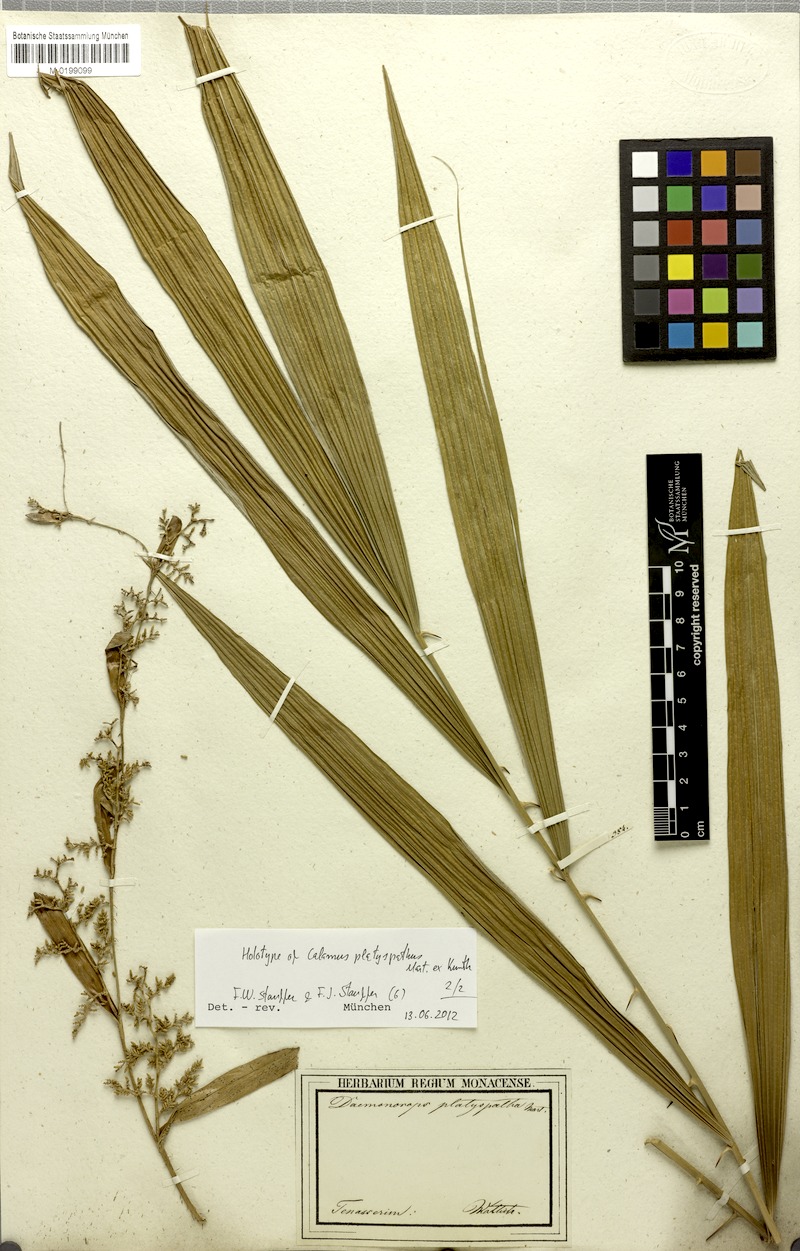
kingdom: Plantae
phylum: Tracheophyta
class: Liliopsida
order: Arecales
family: Arecaceae
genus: Calamus
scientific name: Calamus platyspathus
